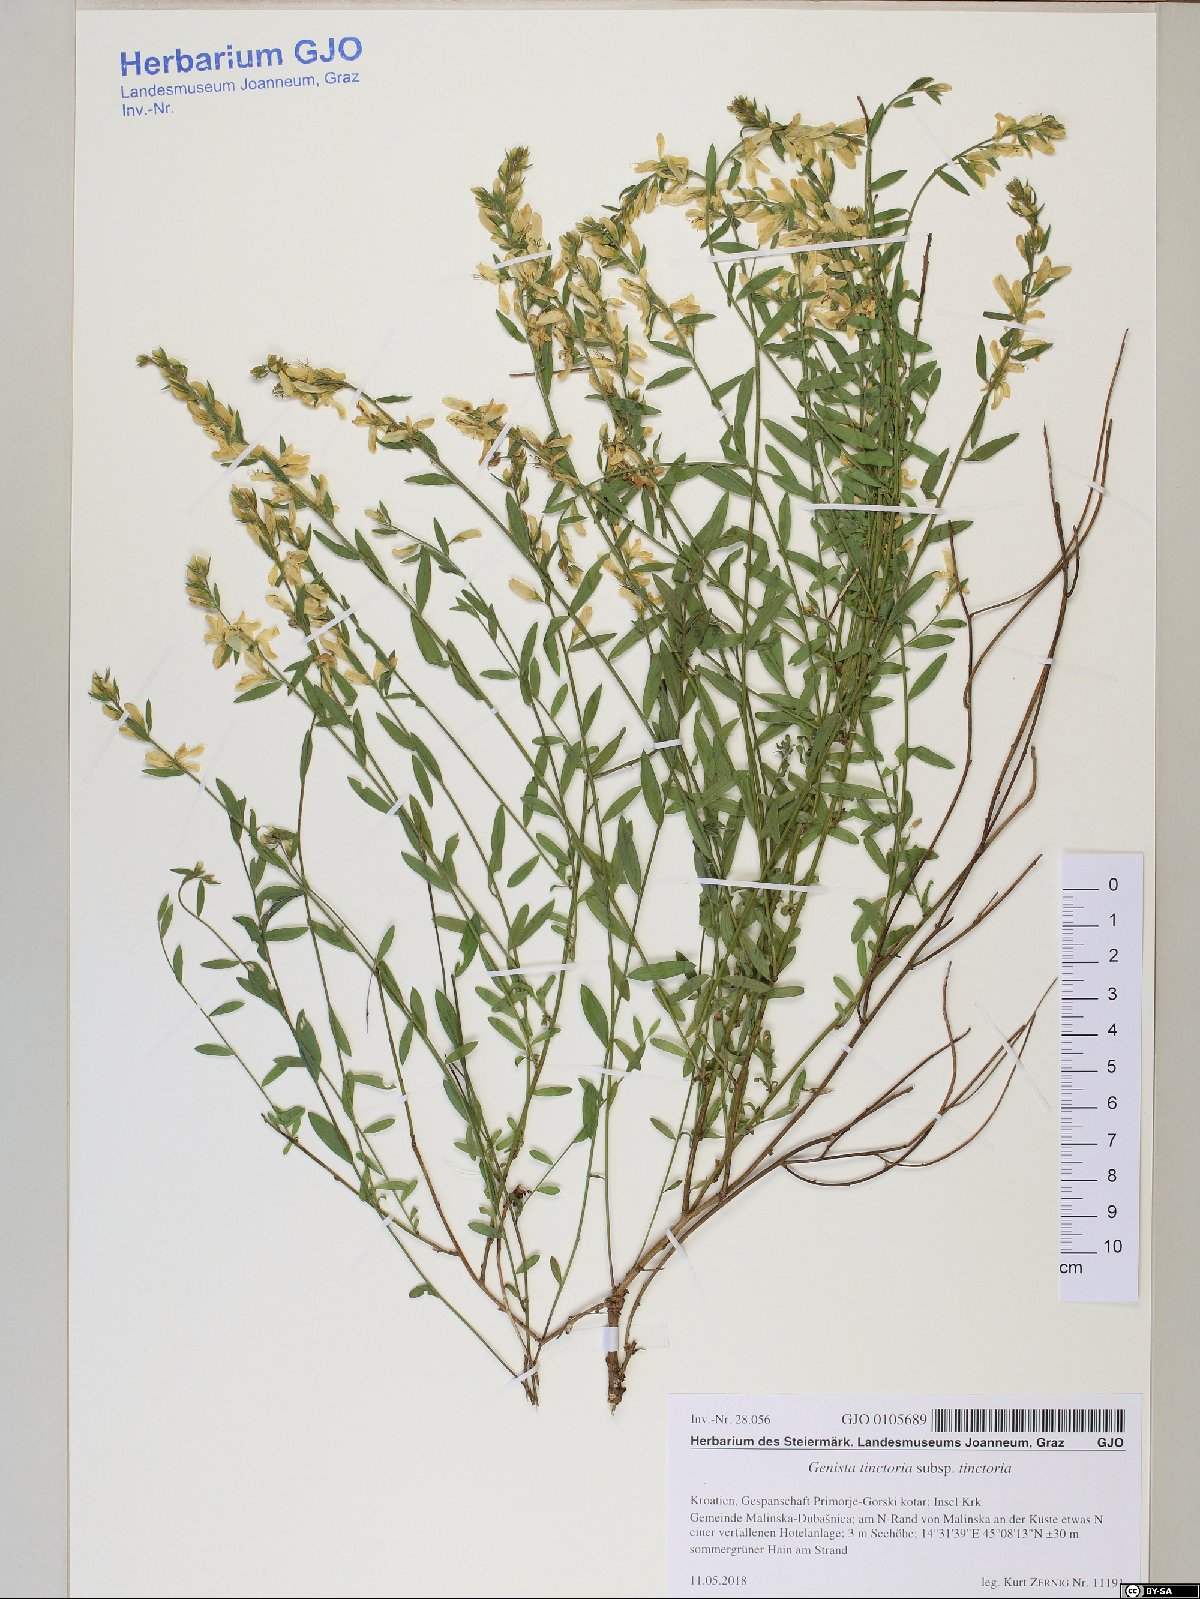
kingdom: Plantae
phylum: Tracheophyta
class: Magnoliopsida
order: Fabales
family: Fabaceae
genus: Genista
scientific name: Genista tinctoria
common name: Dyer's greenweed
